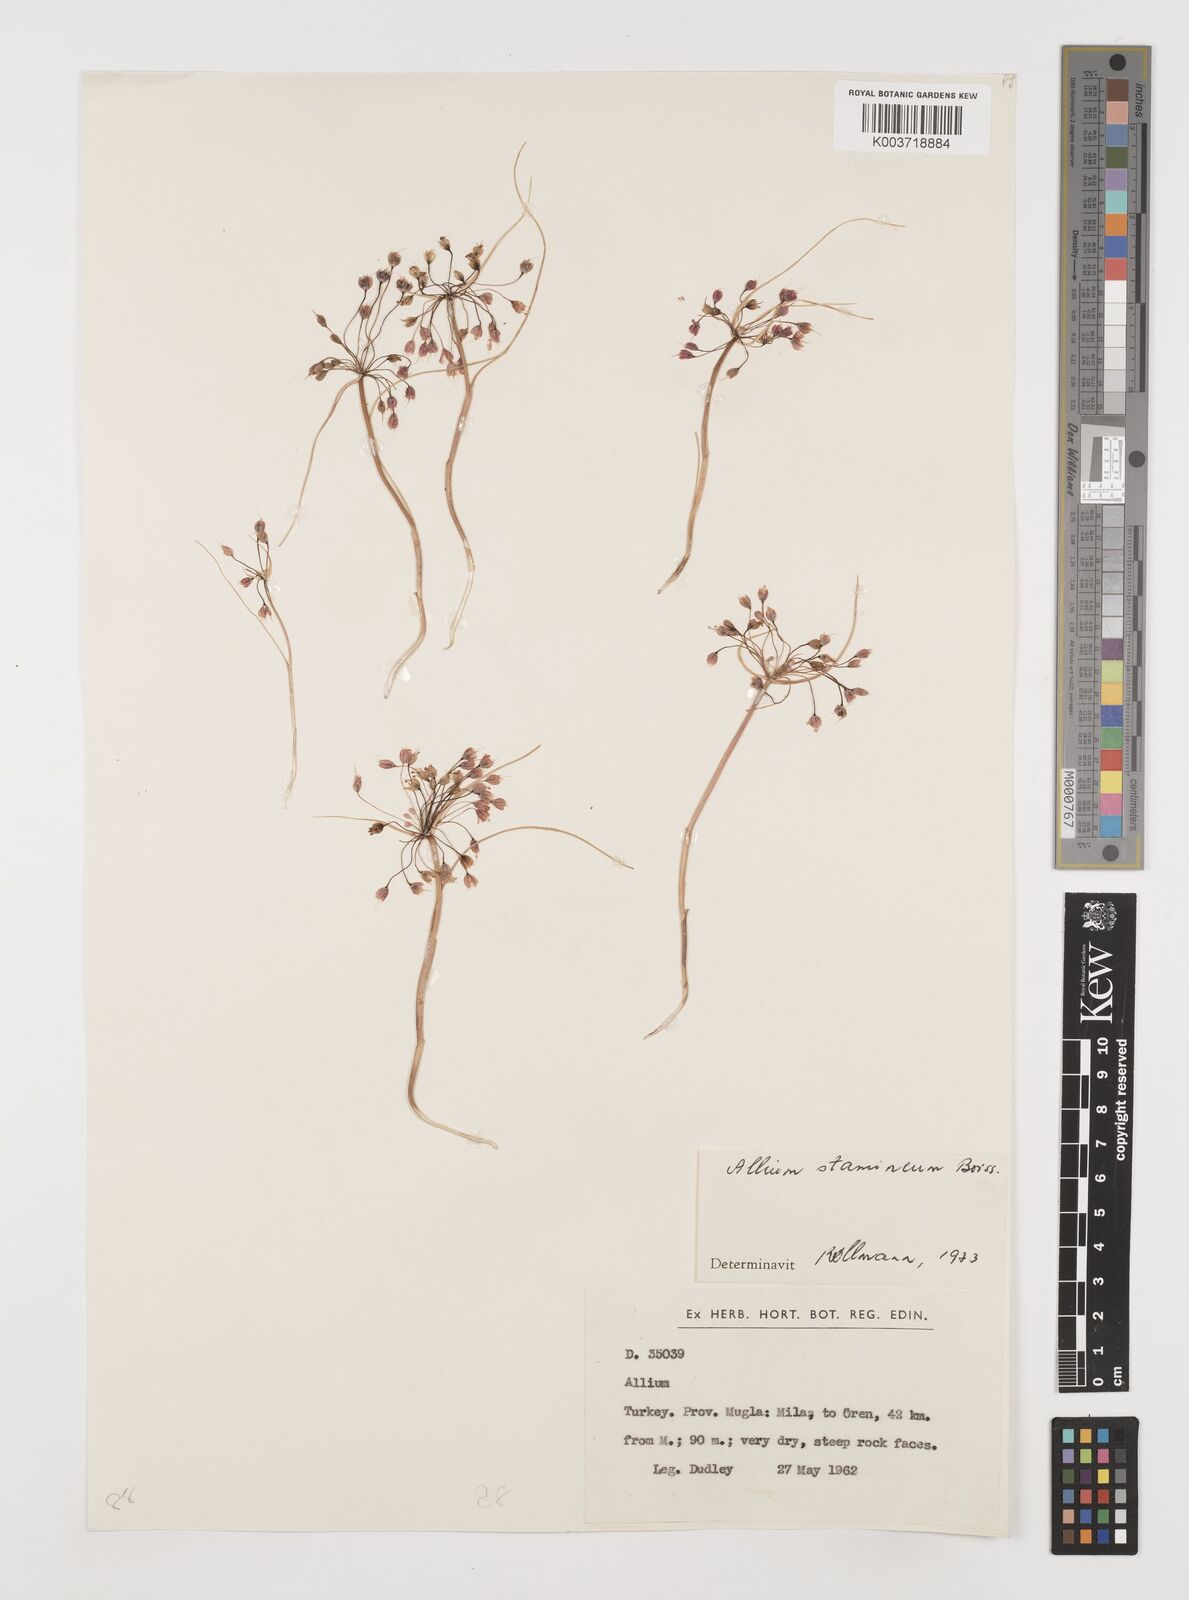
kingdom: Plantae
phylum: Tracheophyta
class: Liliopsida
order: Asparagales
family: Amaryllidaceae
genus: Allium
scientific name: Allium stamineum
